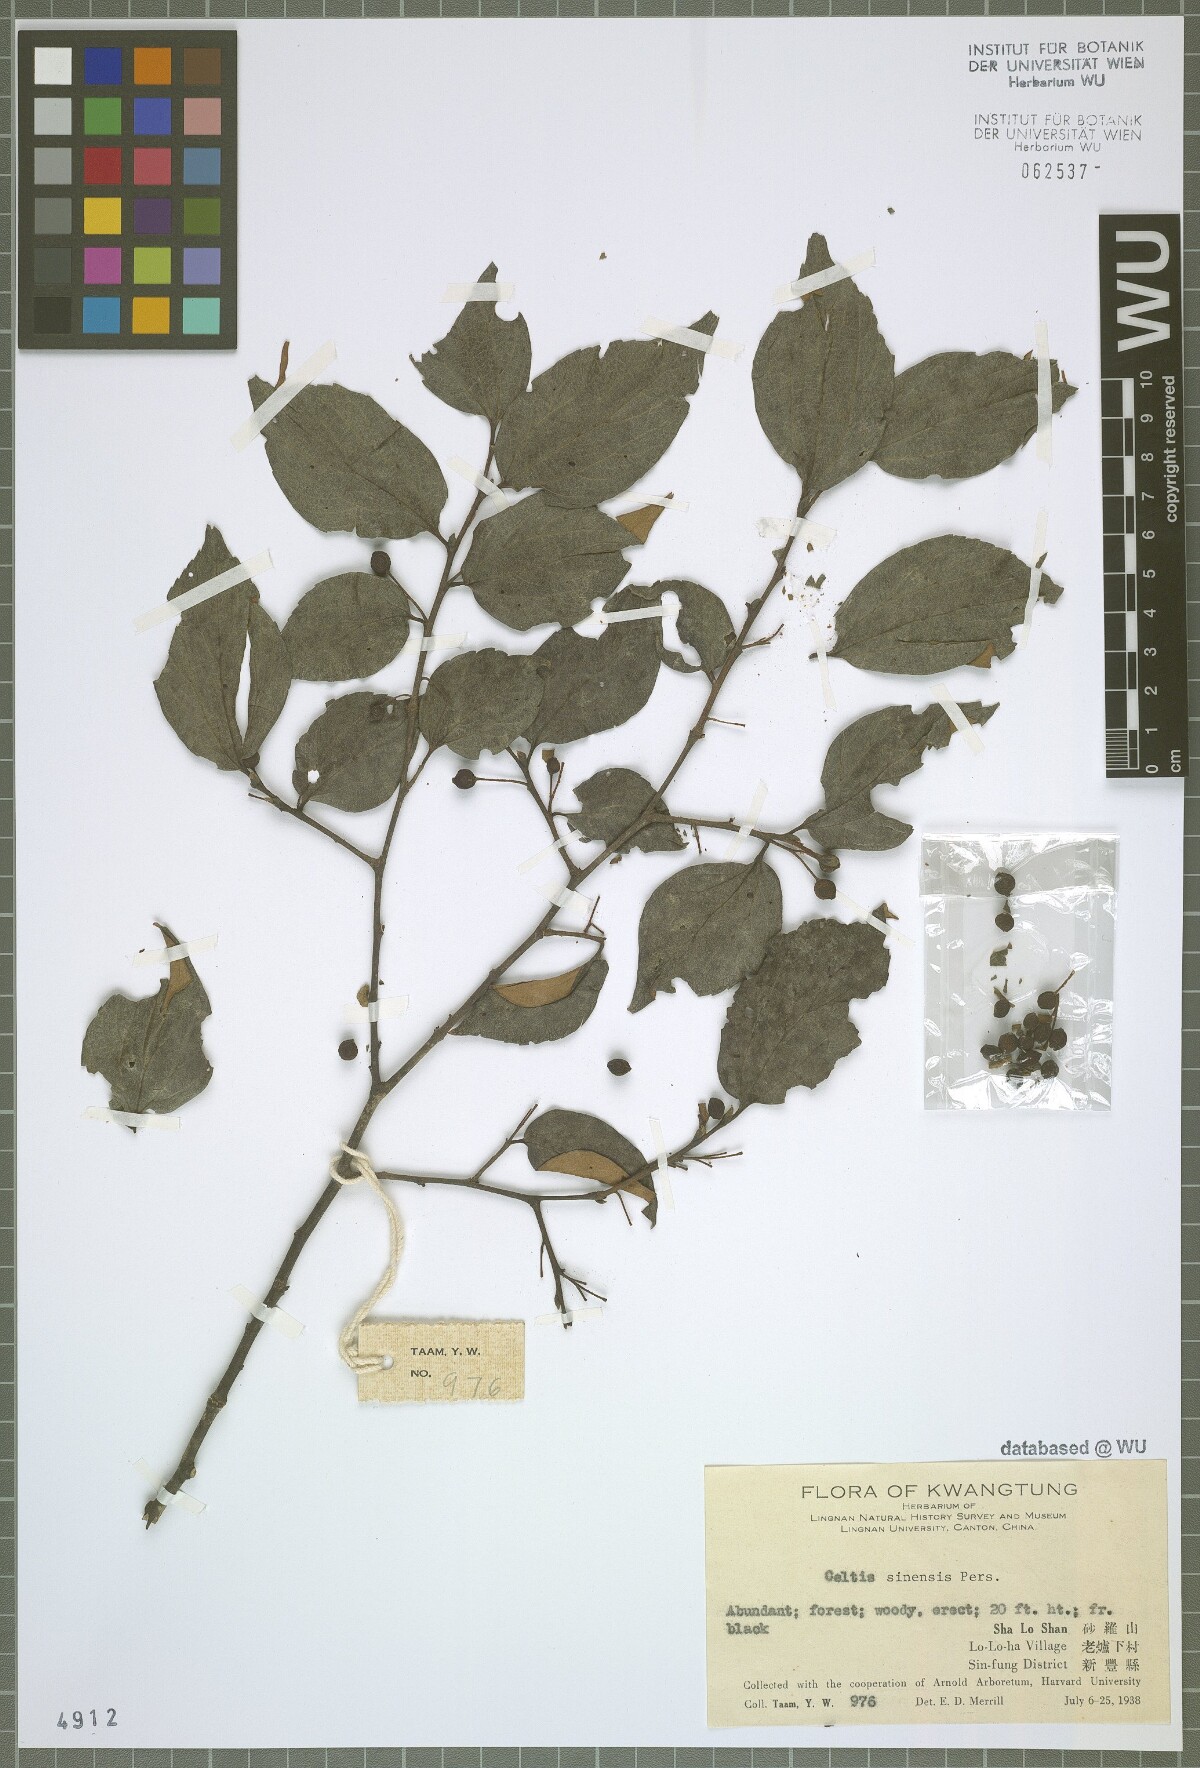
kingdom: Plantae
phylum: Tracheophyta
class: Magnoliopsida
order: Rosales
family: Cannabaceae
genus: Celtis
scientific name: Celtis sinensis
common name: Chinese hackberry
